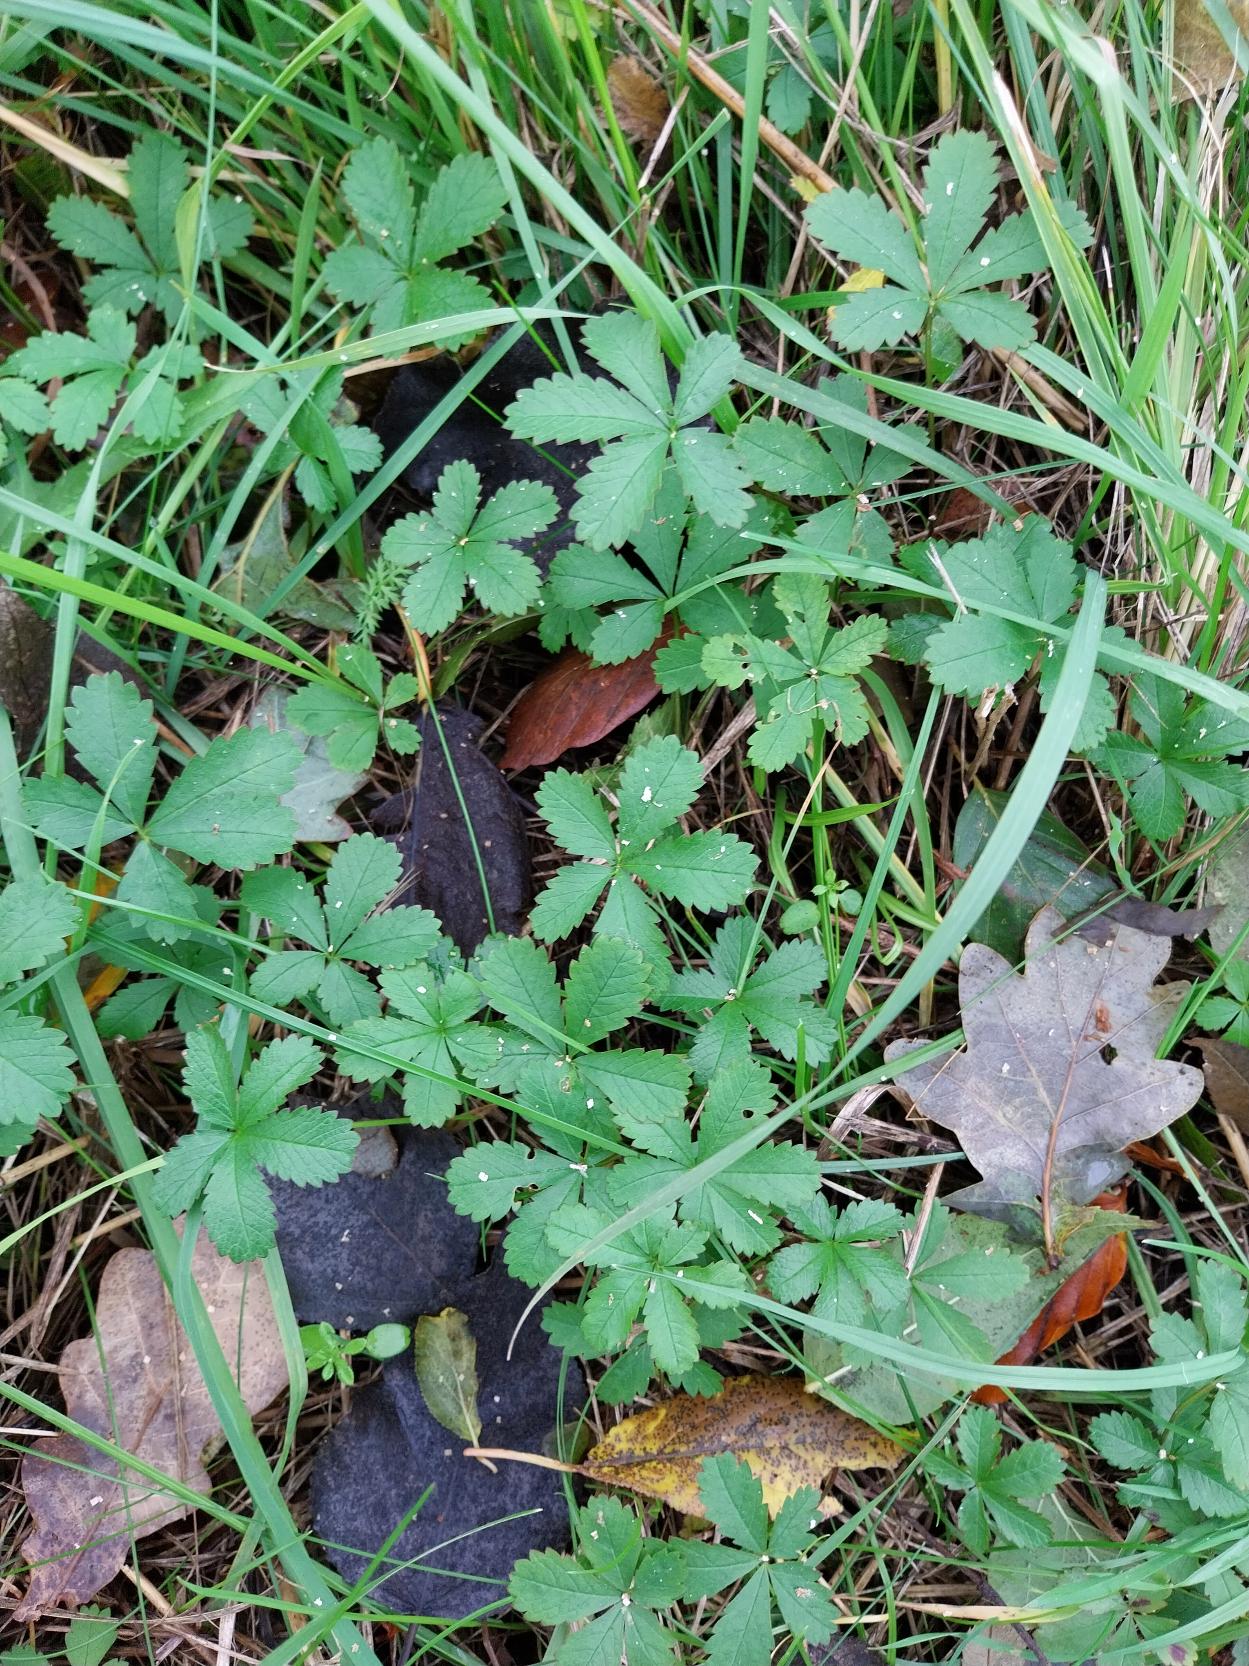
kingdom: Plantae
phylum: Tracheophyta
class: Magnoliopsida
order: Rosales
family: Rosaceae
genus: Potentilla
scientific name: Potentilla reptans
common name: Krybende potentil
